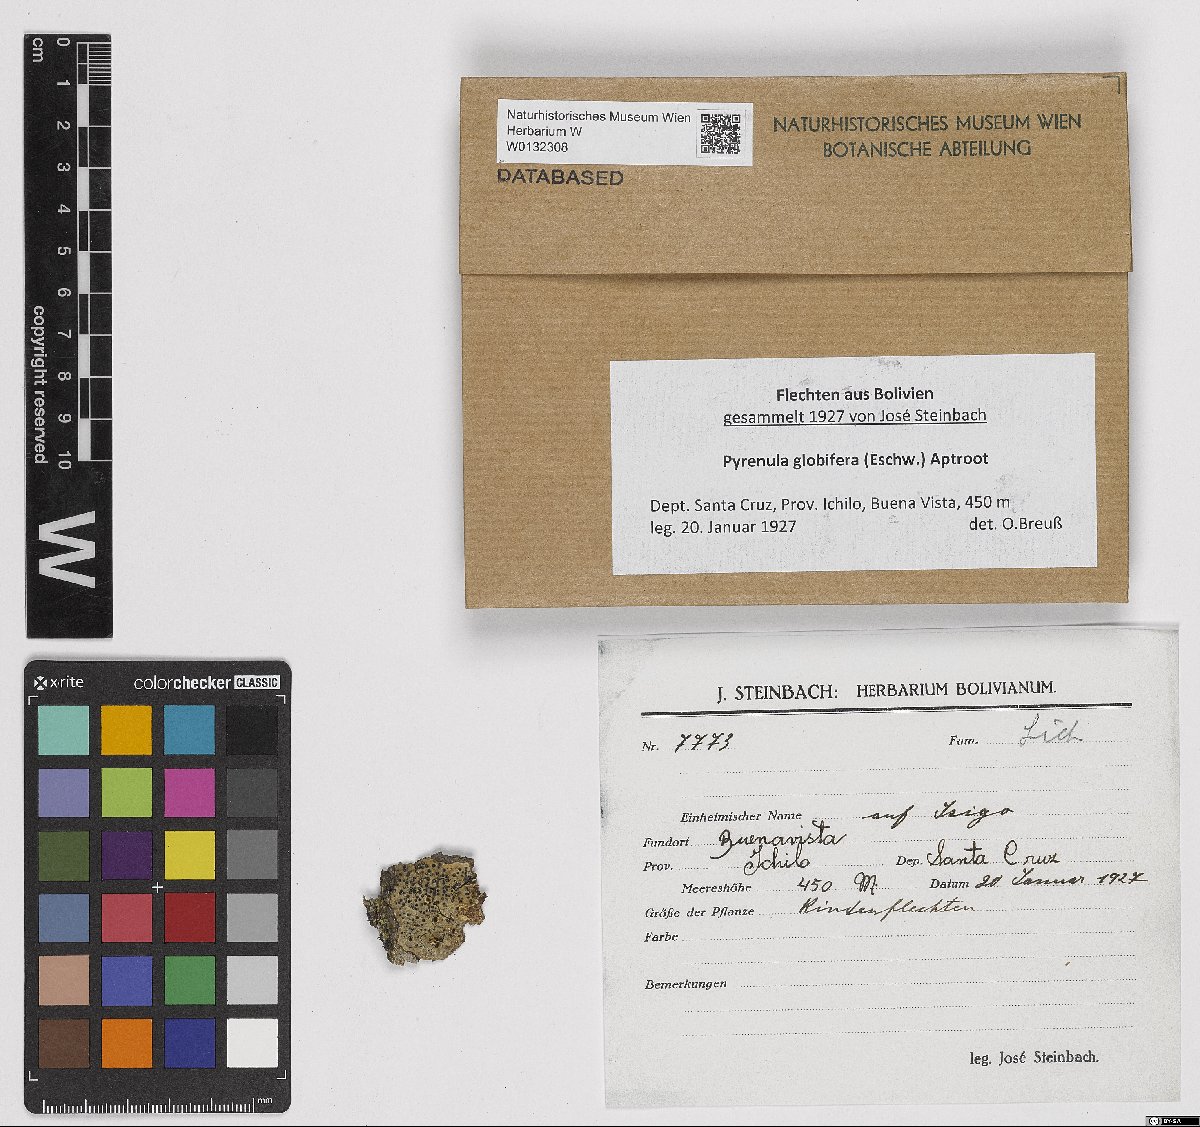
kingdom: Fungi
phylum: Ascomycota
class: Eurotiomycetes
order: Pyrenulales
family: Pyrenulaceae
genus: Pyrenula
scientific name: Pyrenula globifera
